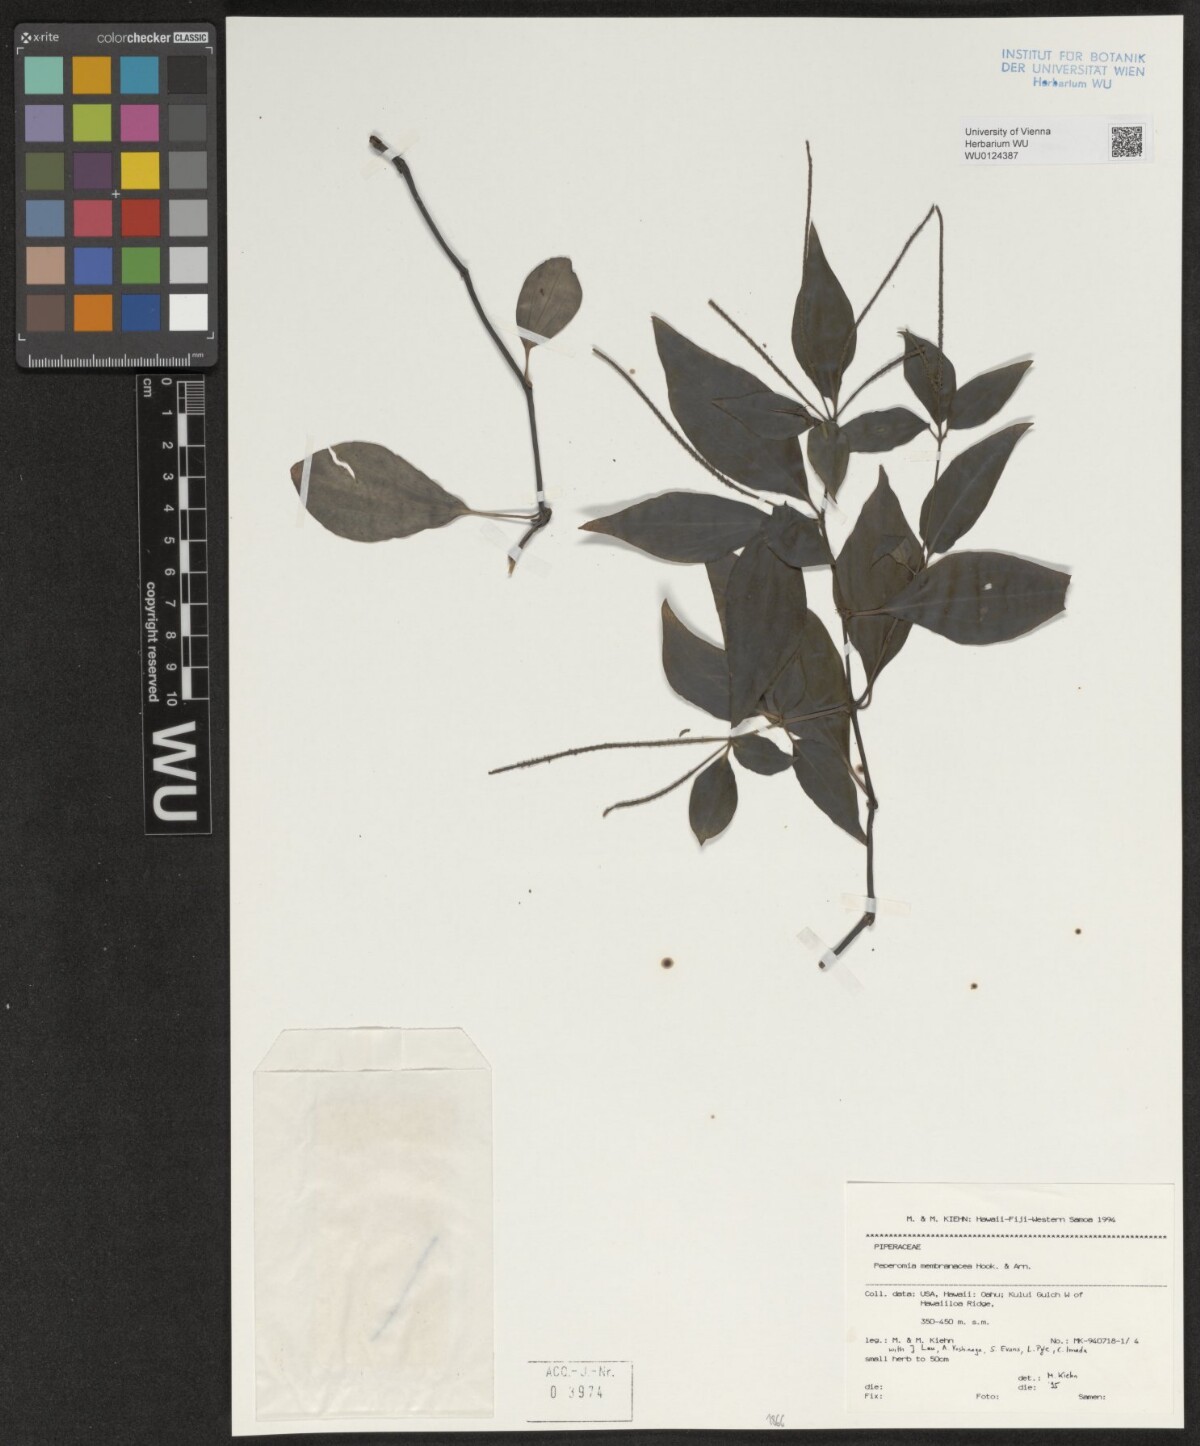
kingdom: Plantae
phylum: Tracheophyta
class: Magnoliopsida
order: Piperales
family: Piperaceae
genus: Peperomia
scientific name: Peperomia membranacea
